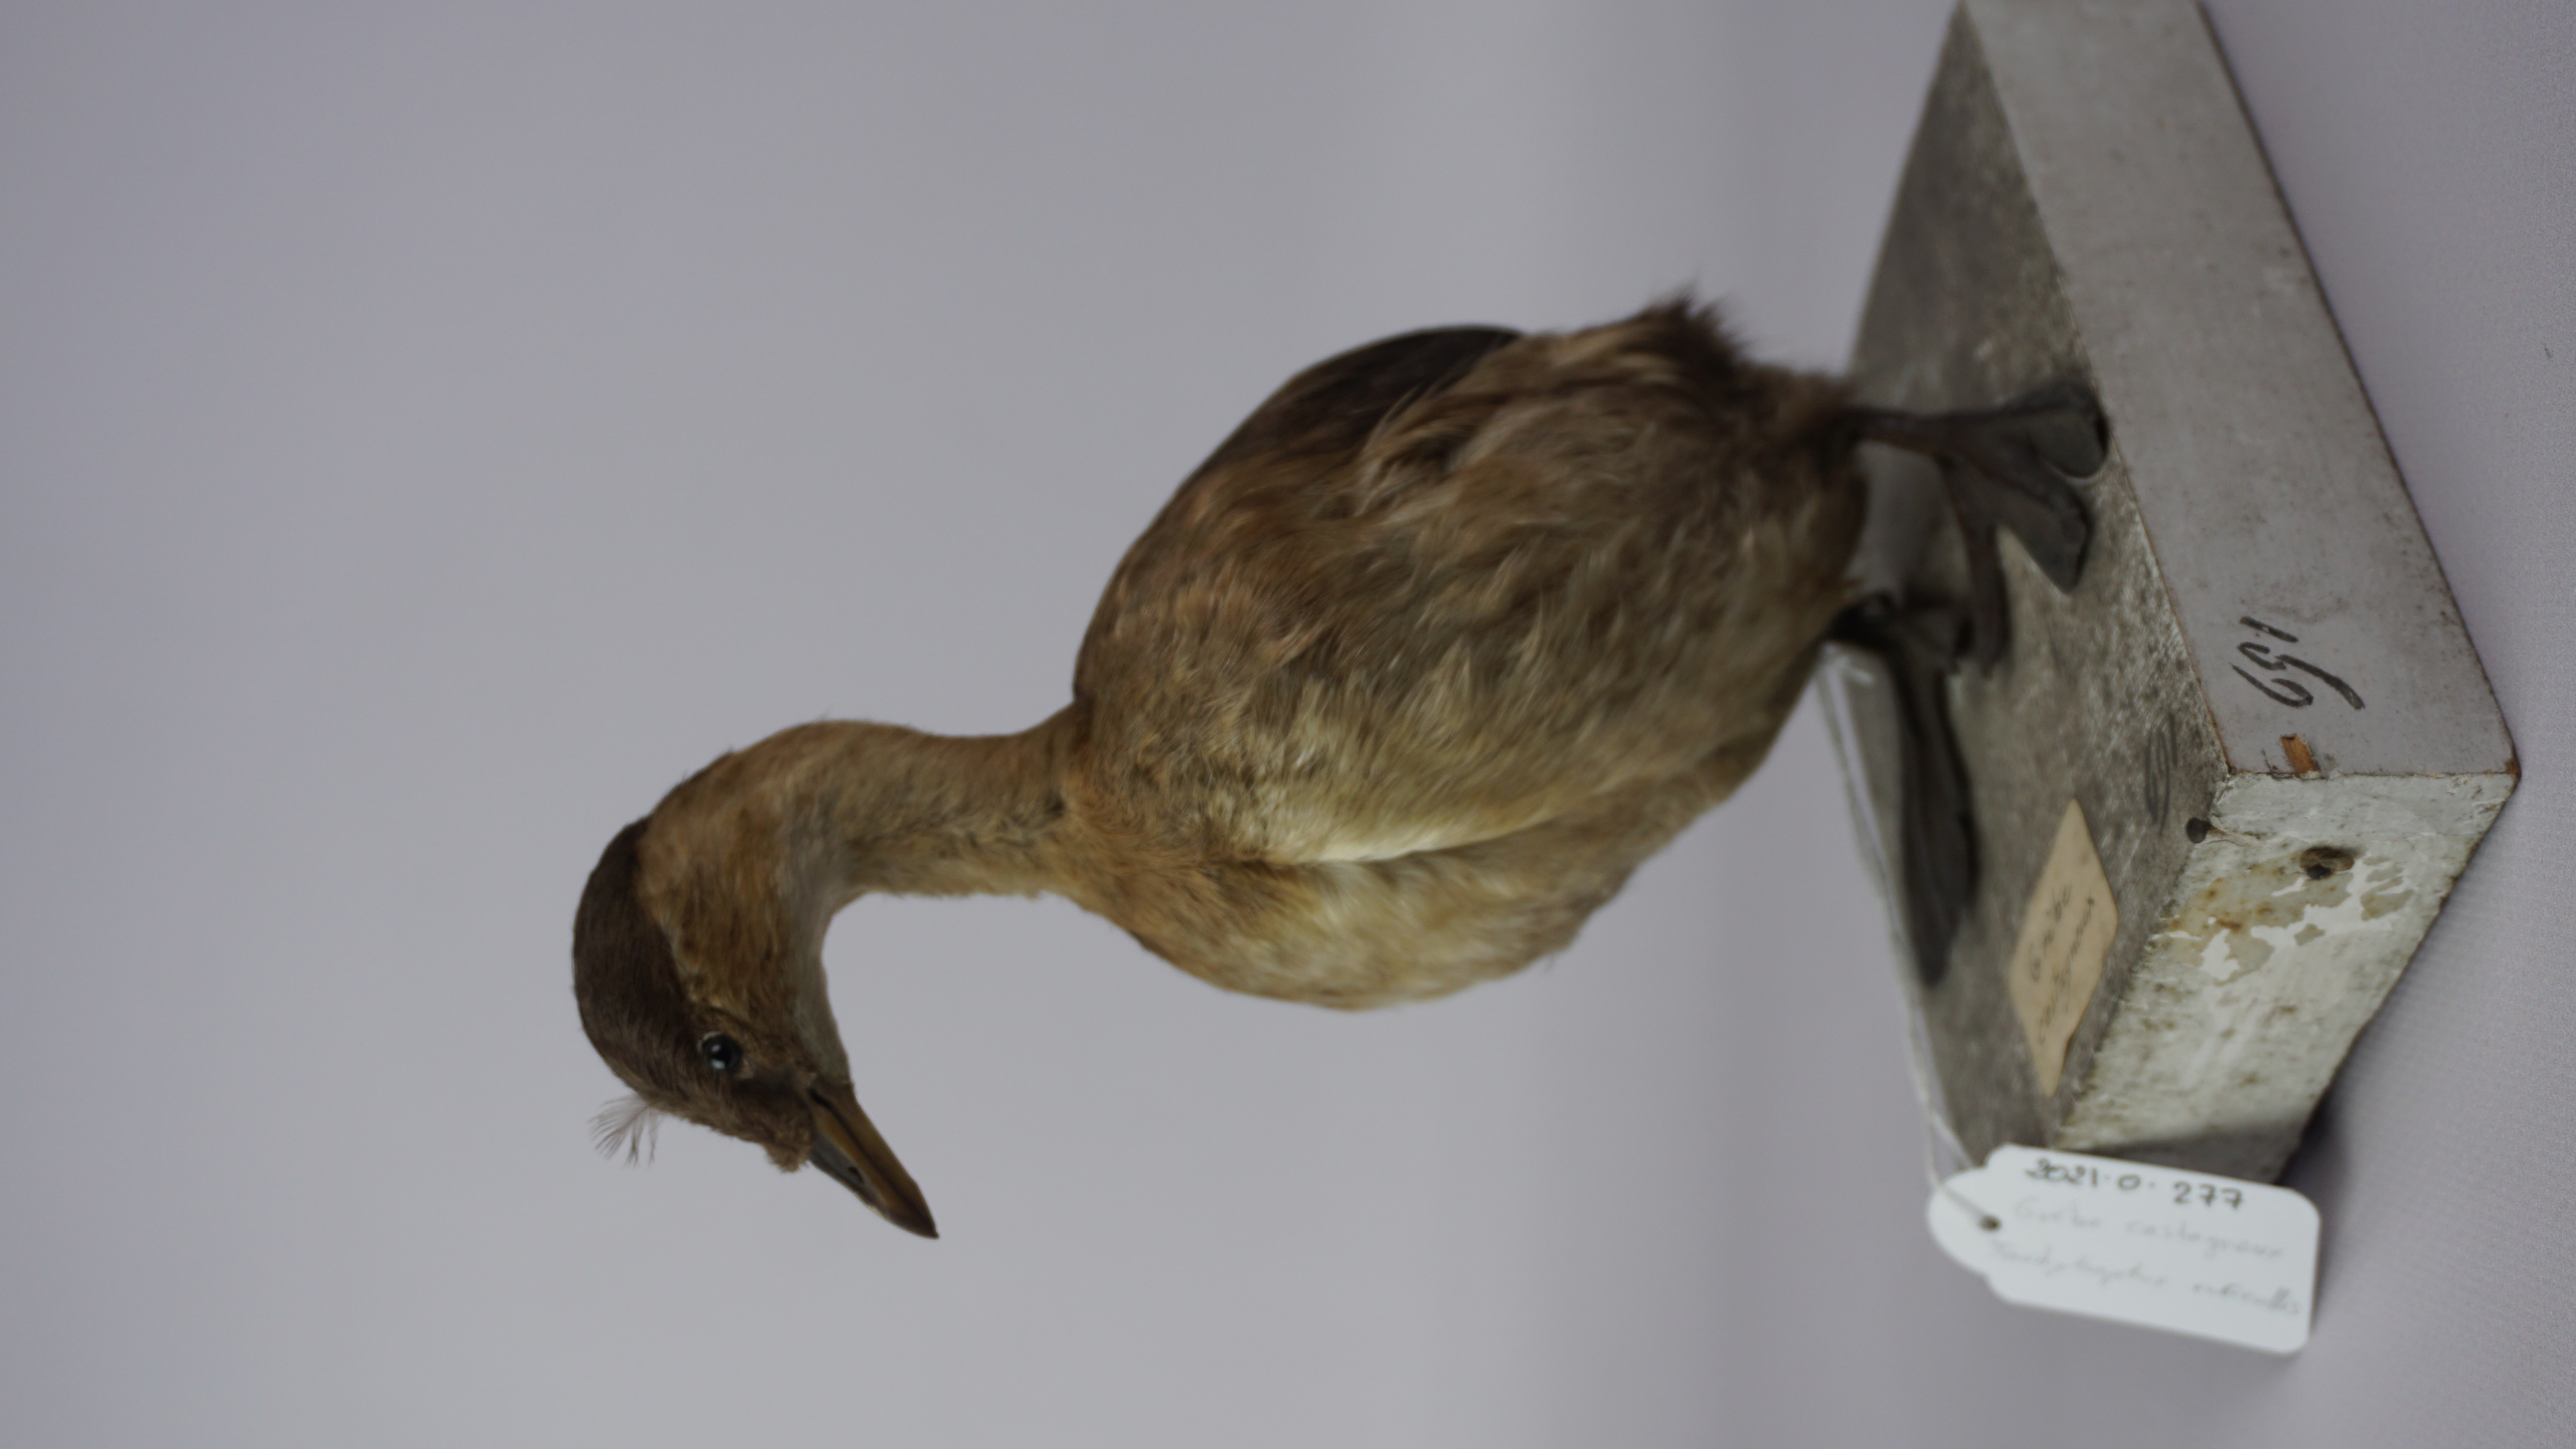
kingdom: Animalia
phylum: Chordata
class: Aves
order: Podicipediformes
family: Podicipedidae
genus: Tachybaptus
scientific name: Tachybaptus ruficollis
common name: Little grebe
